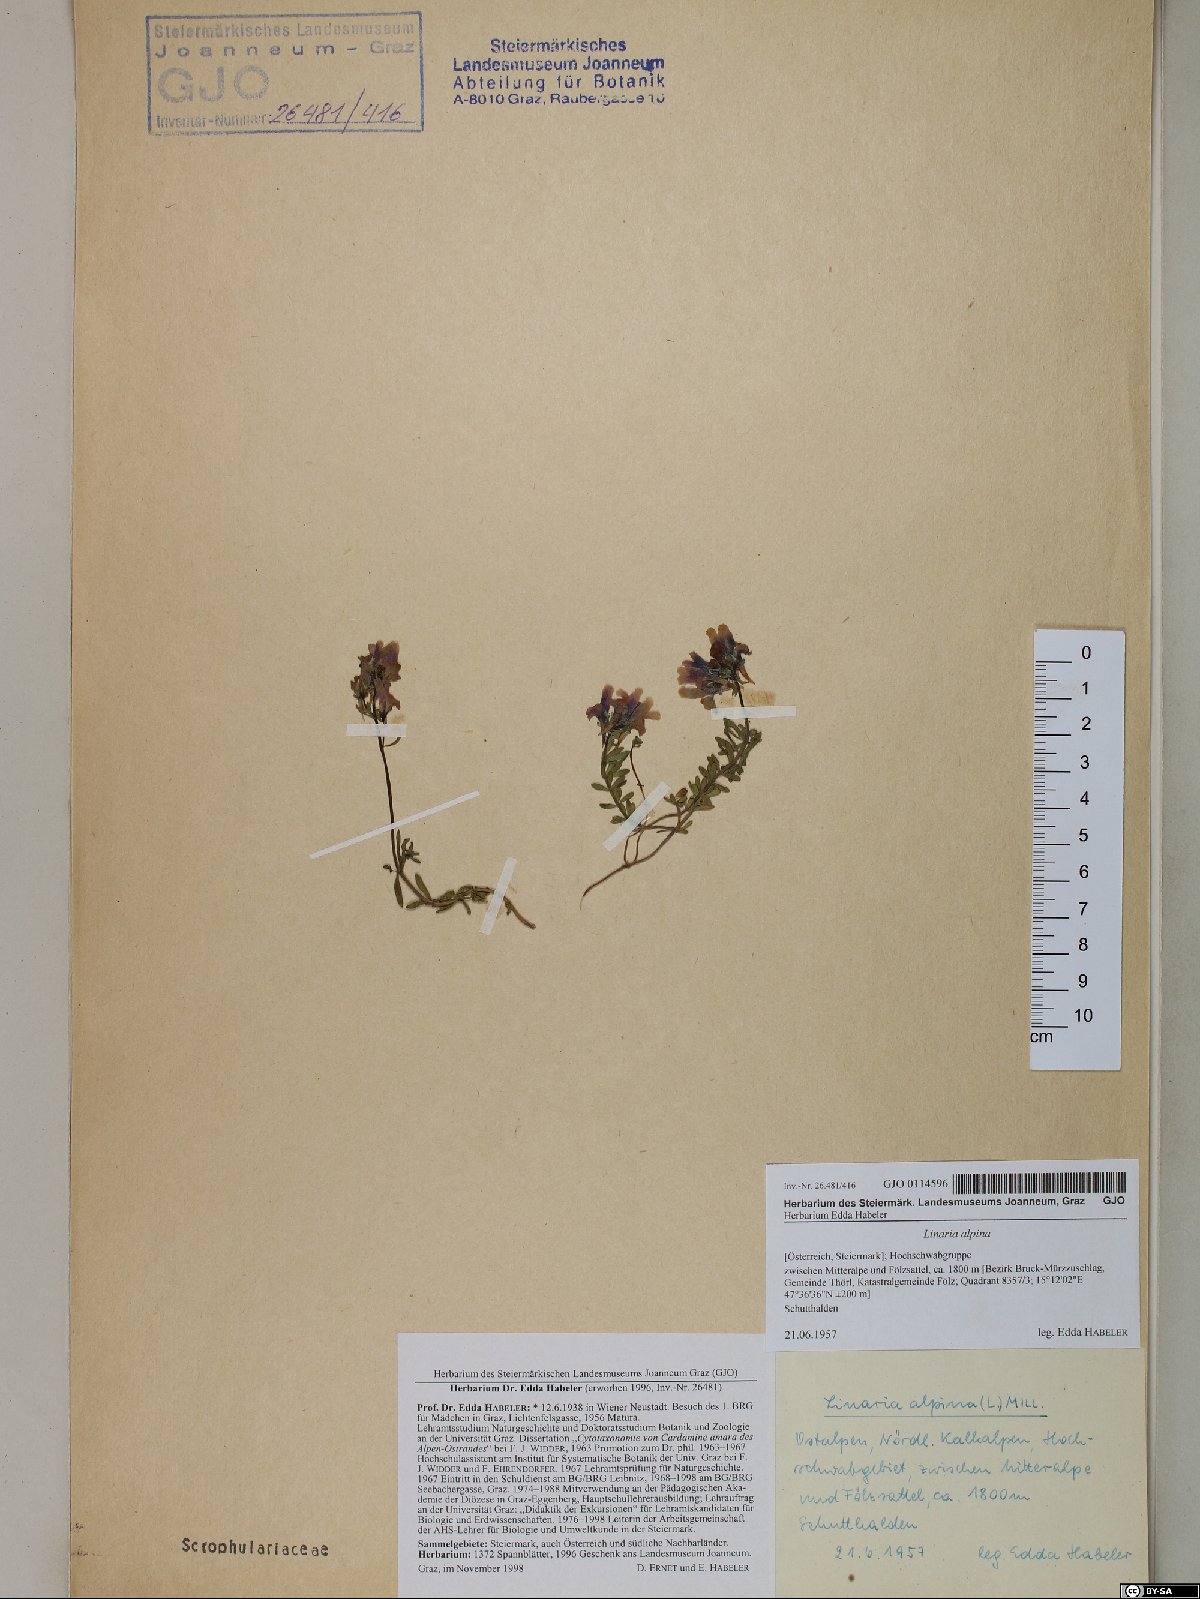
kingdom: Plantae
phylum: Tracheophyta
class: Magnoliopsida
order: Lamiales
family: Plantaginaceae
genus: Linaria
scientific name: Linaria alpina
